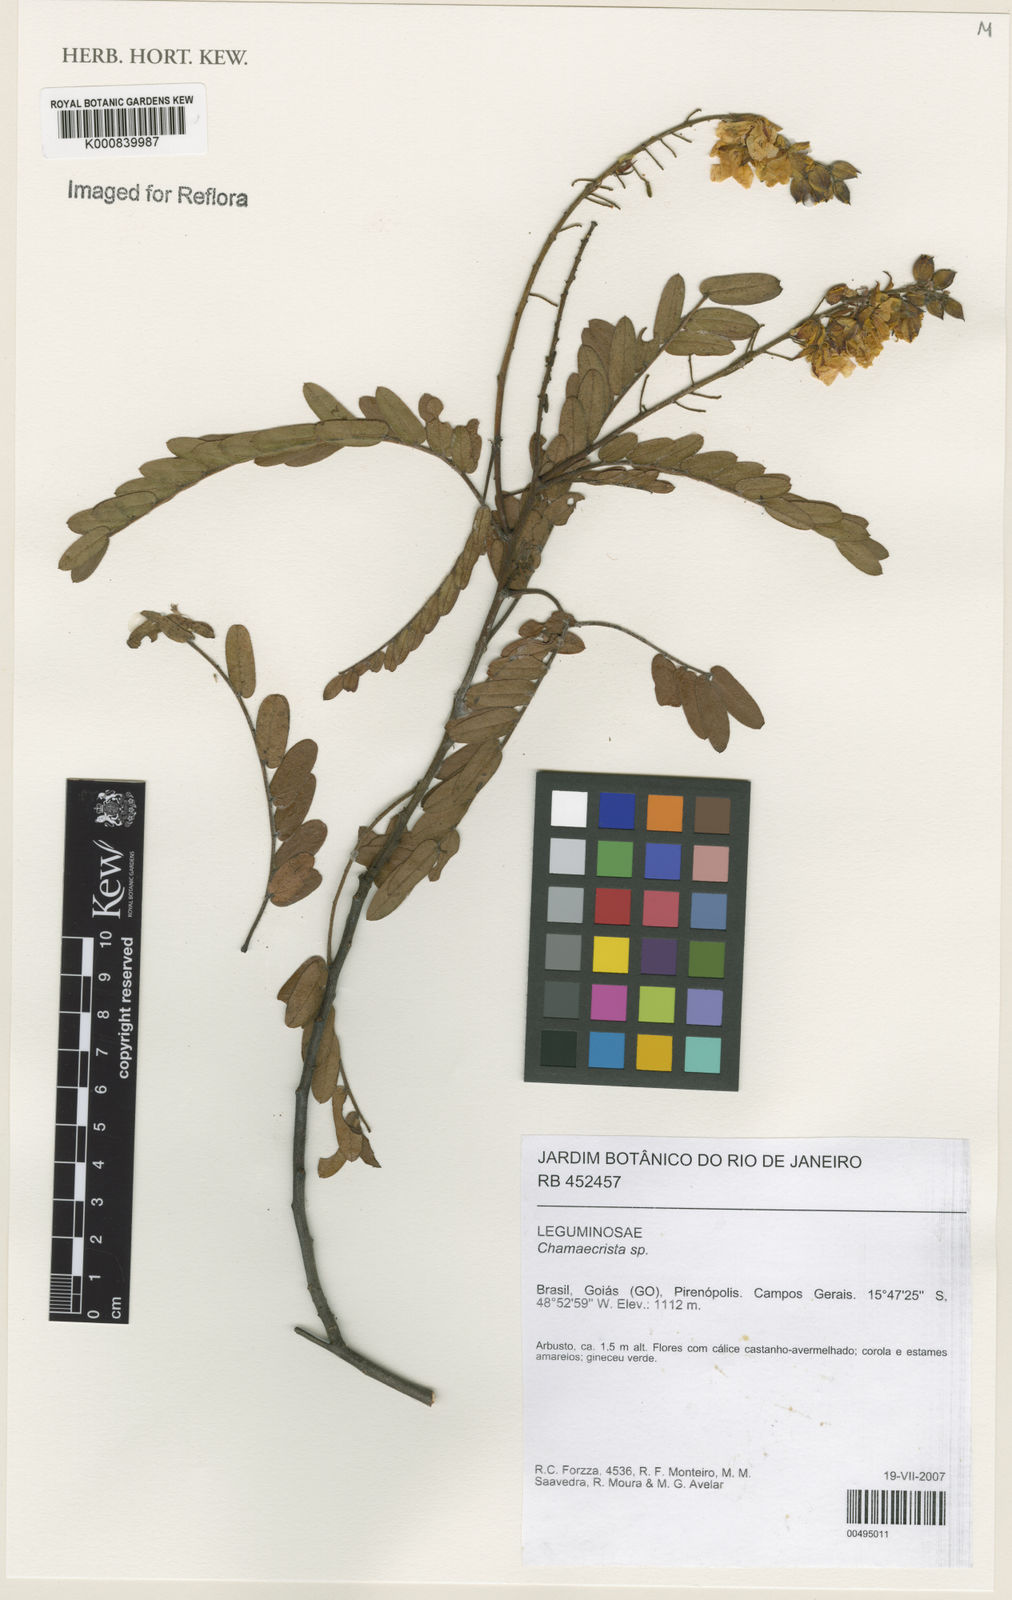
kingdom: Plantae
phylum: Tracheophyta
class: Magnoliopsida
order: Fabales
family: Fabaceae
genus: Chamaecrista
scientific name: Chamaecrista isidorea
